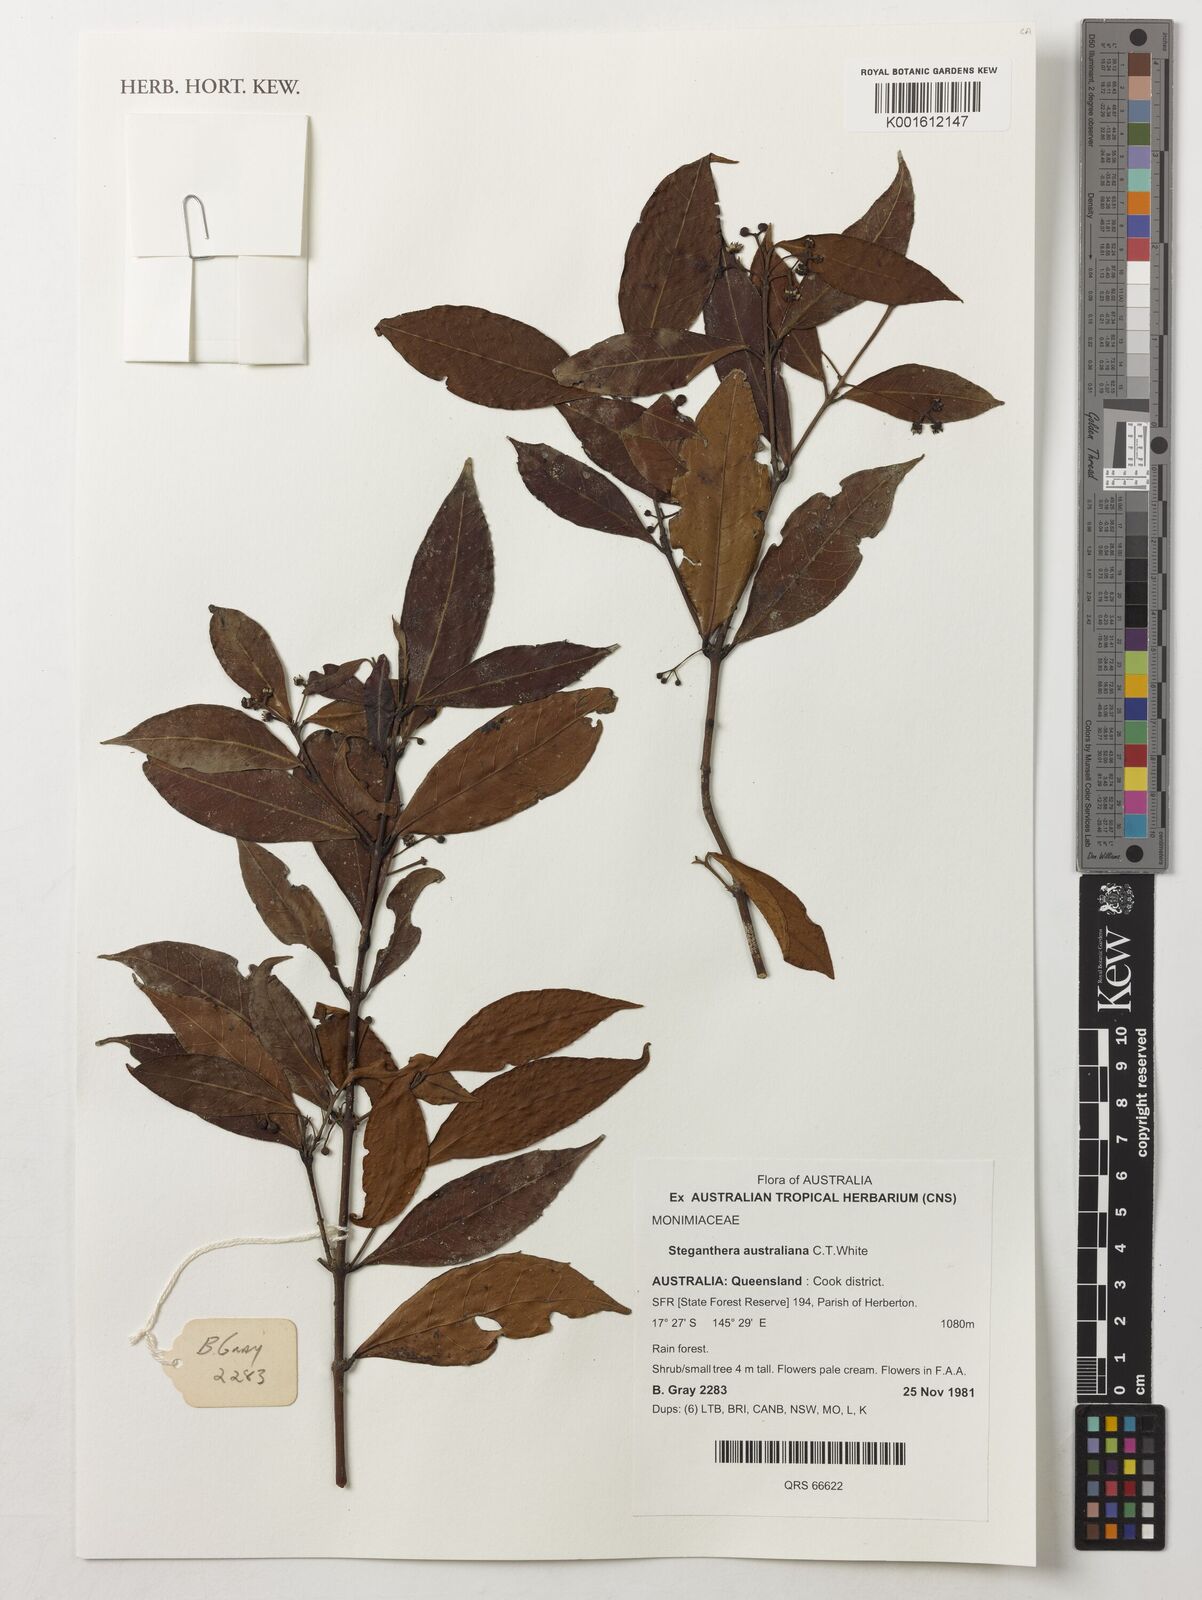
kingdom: Plantae
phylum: Tracheophyta
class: Magnoliopsida
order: Laurales
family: Monimiaceae
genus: Steganthera
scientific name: Steganthera australiana
